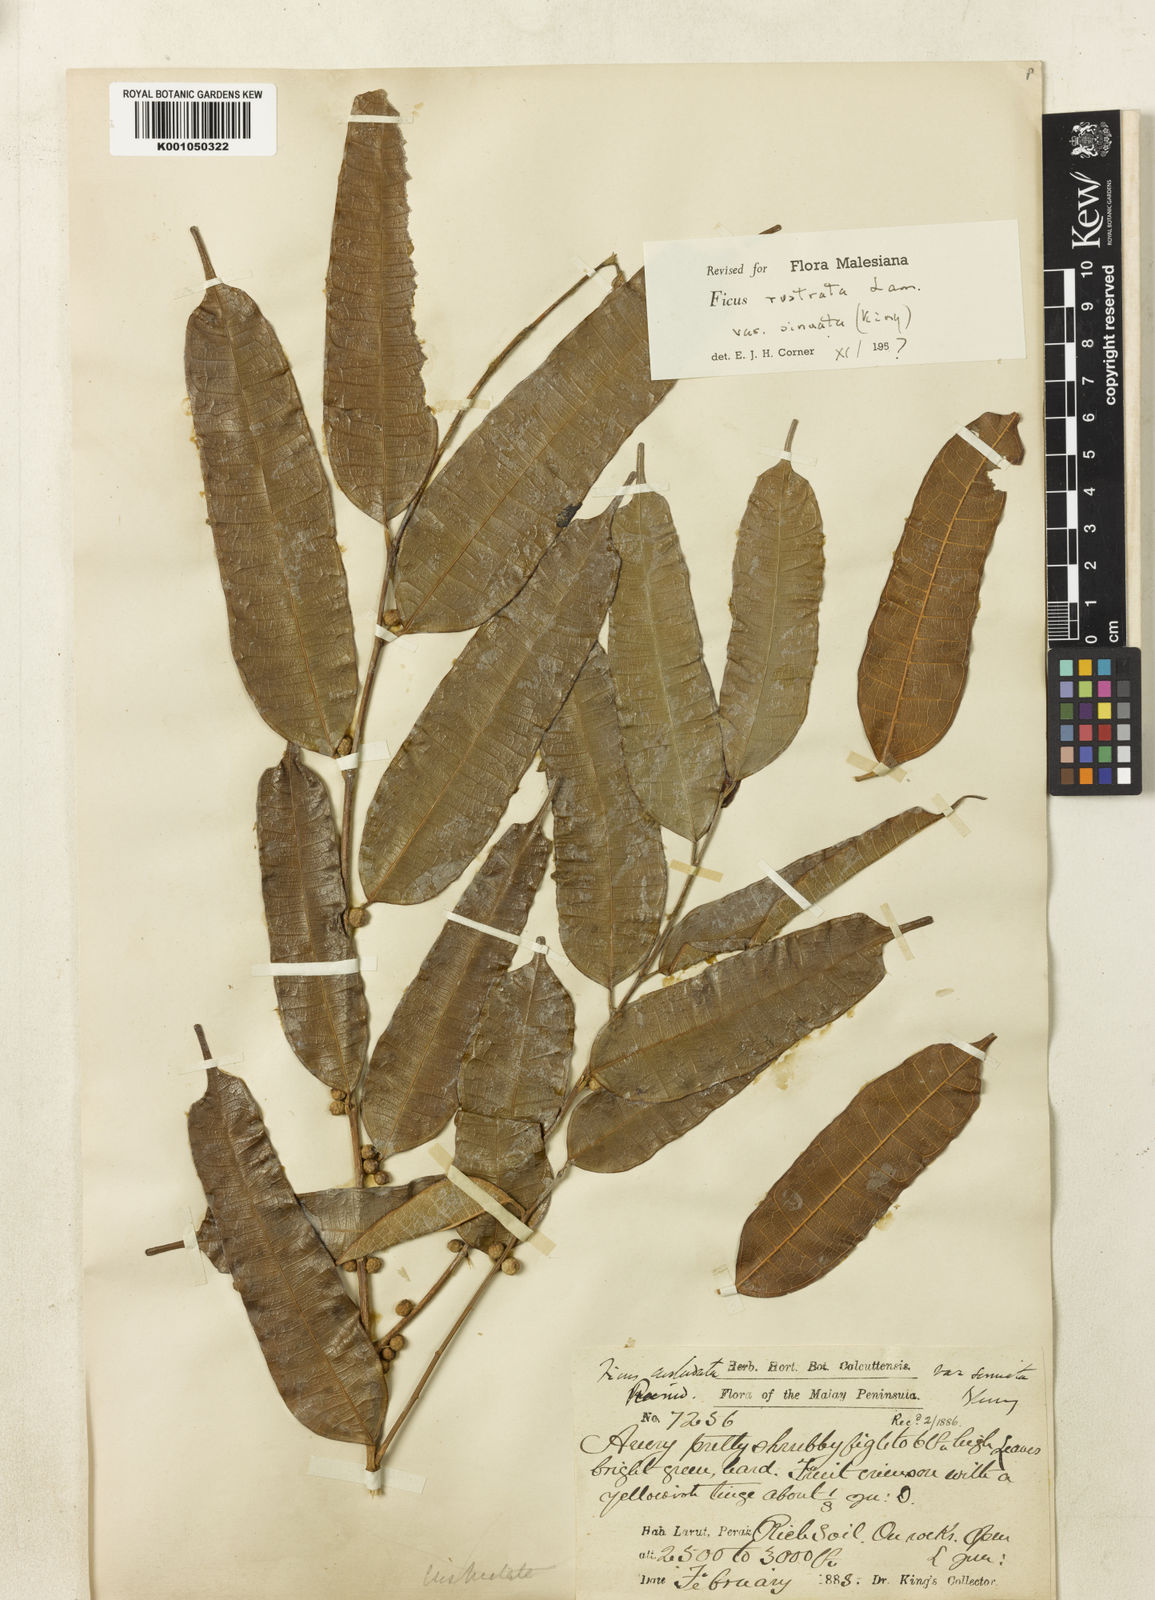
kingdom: Plantae
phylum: Tracheophyta
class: Magnoliopsida
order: Rosales
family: Moraceae
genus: Ficus
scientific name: Ficus sinuata
